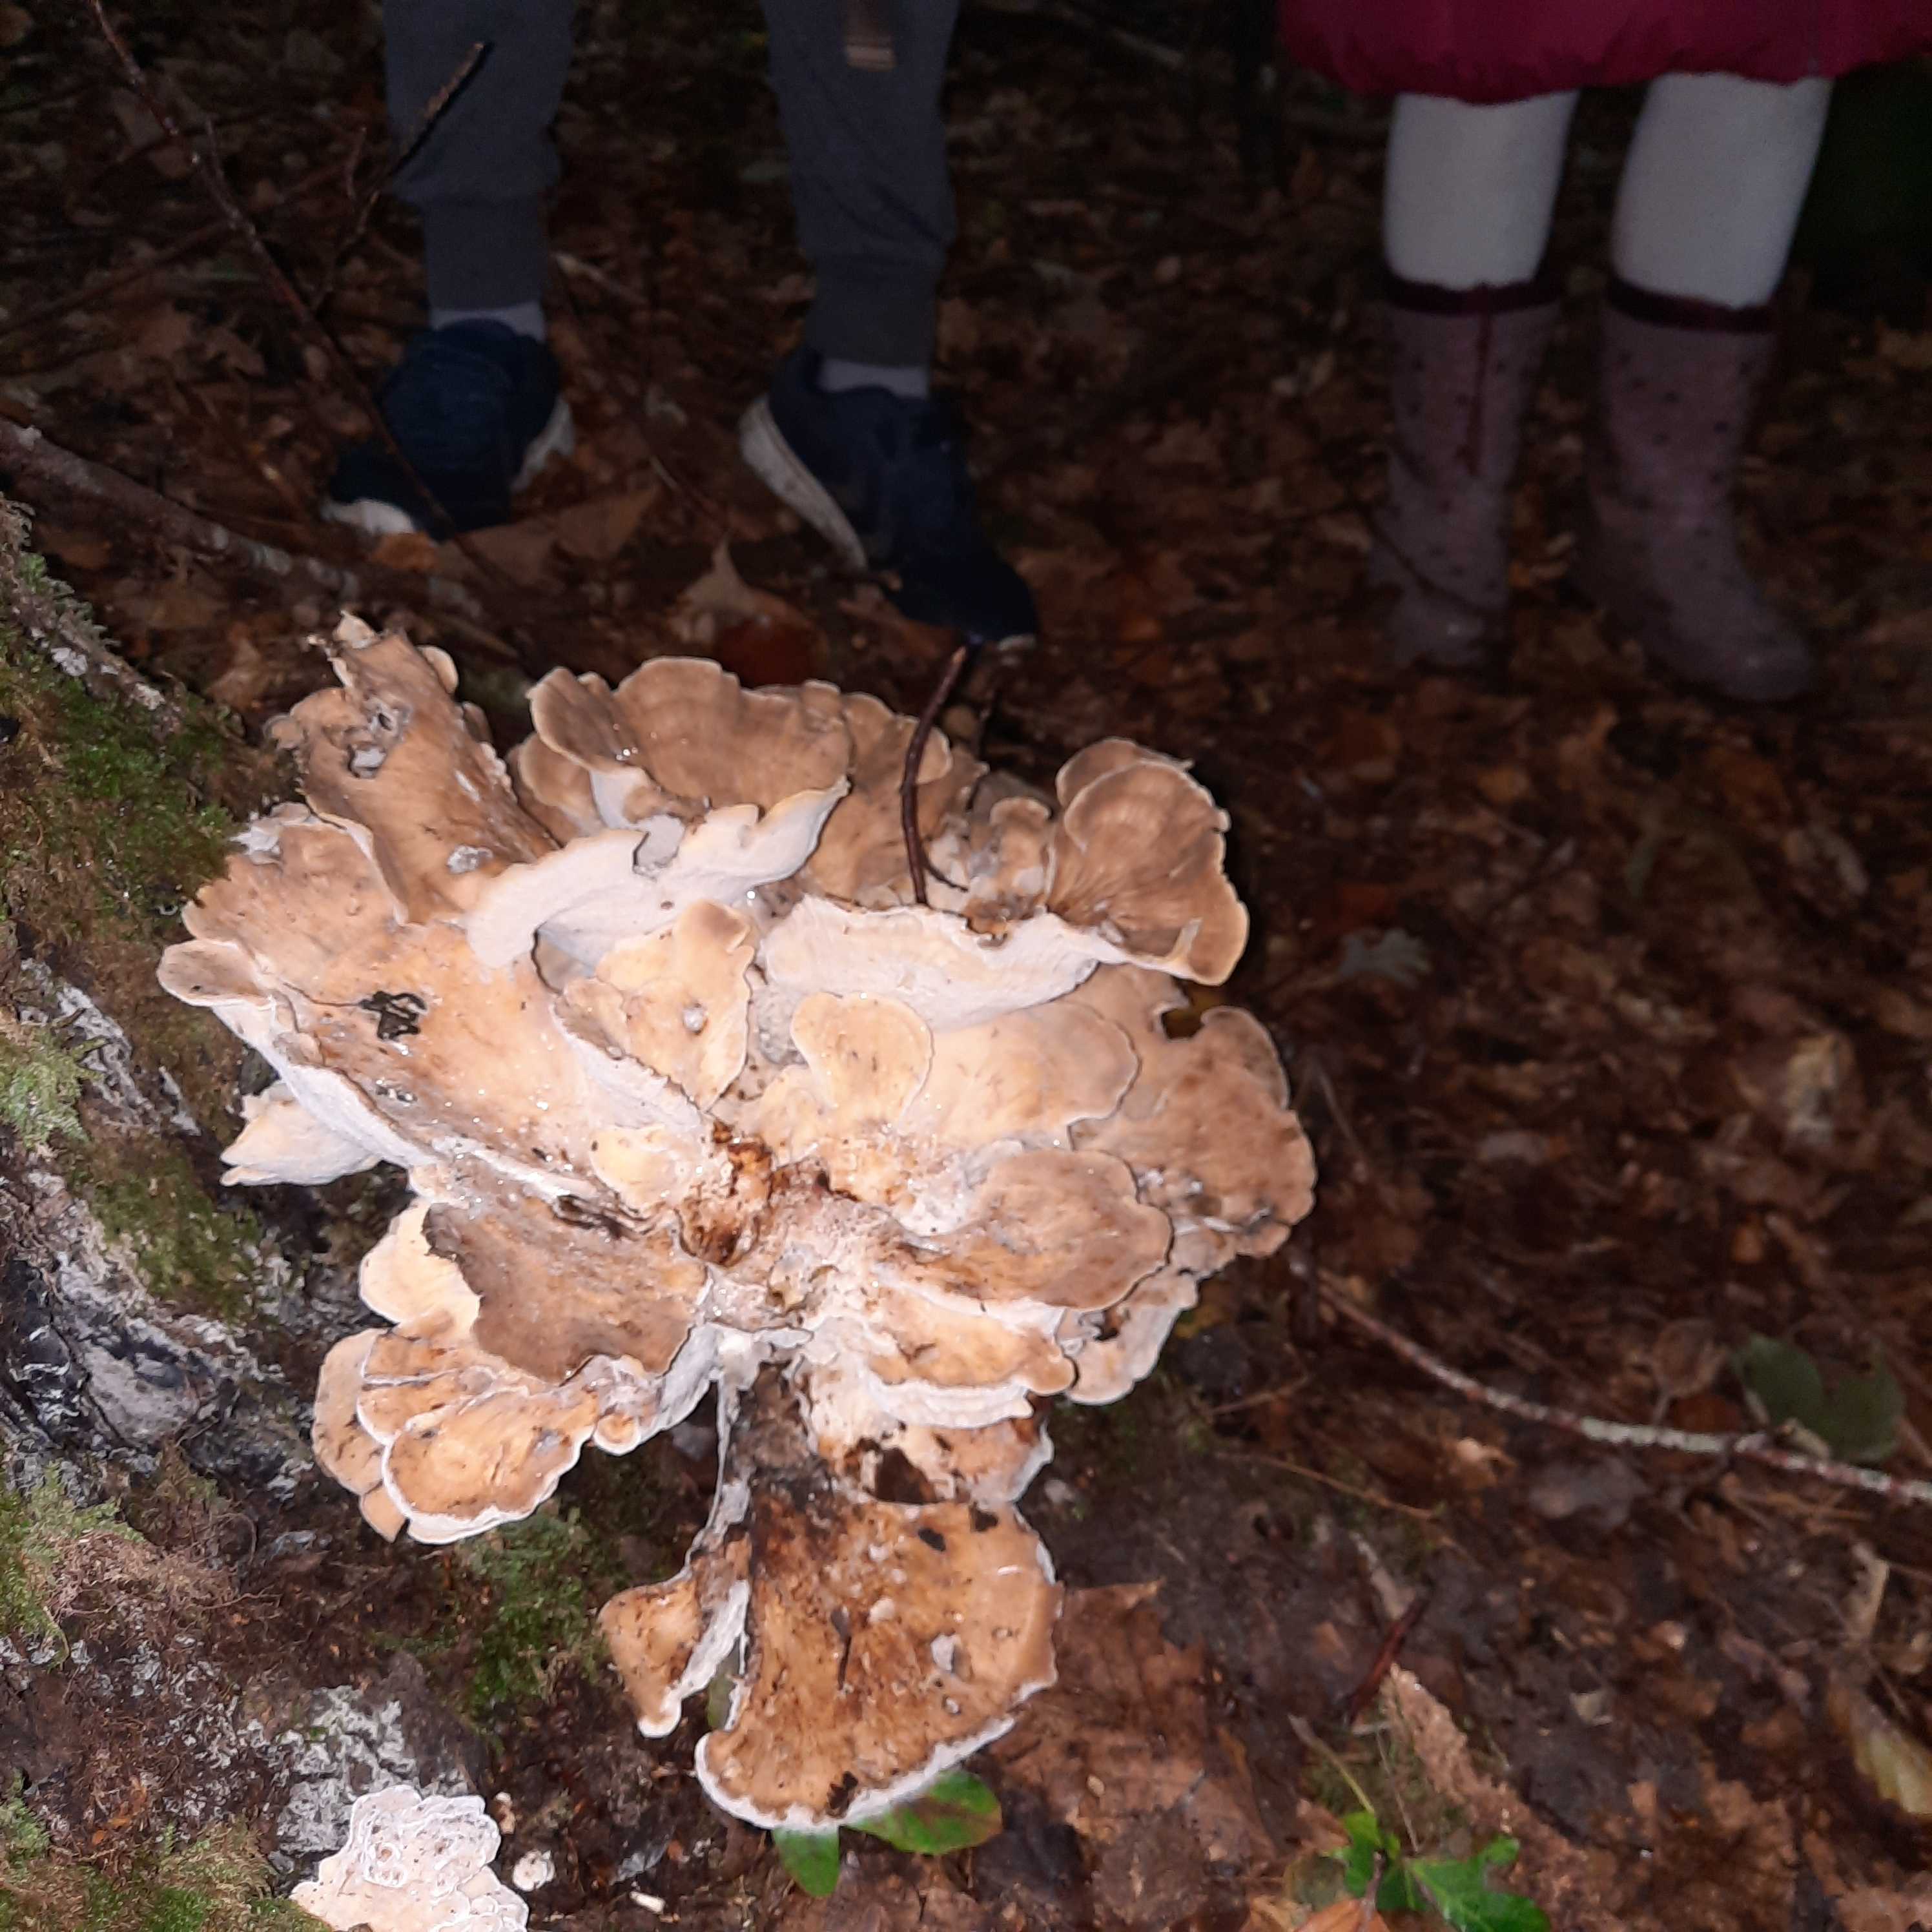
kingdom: Fungi
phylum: Basidiomycota
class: Agaricomycetes
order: Polyporales
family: Meripilaceae
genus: Meripilus
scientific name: Meripilus giganteus
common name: kæmpeporesvamp
